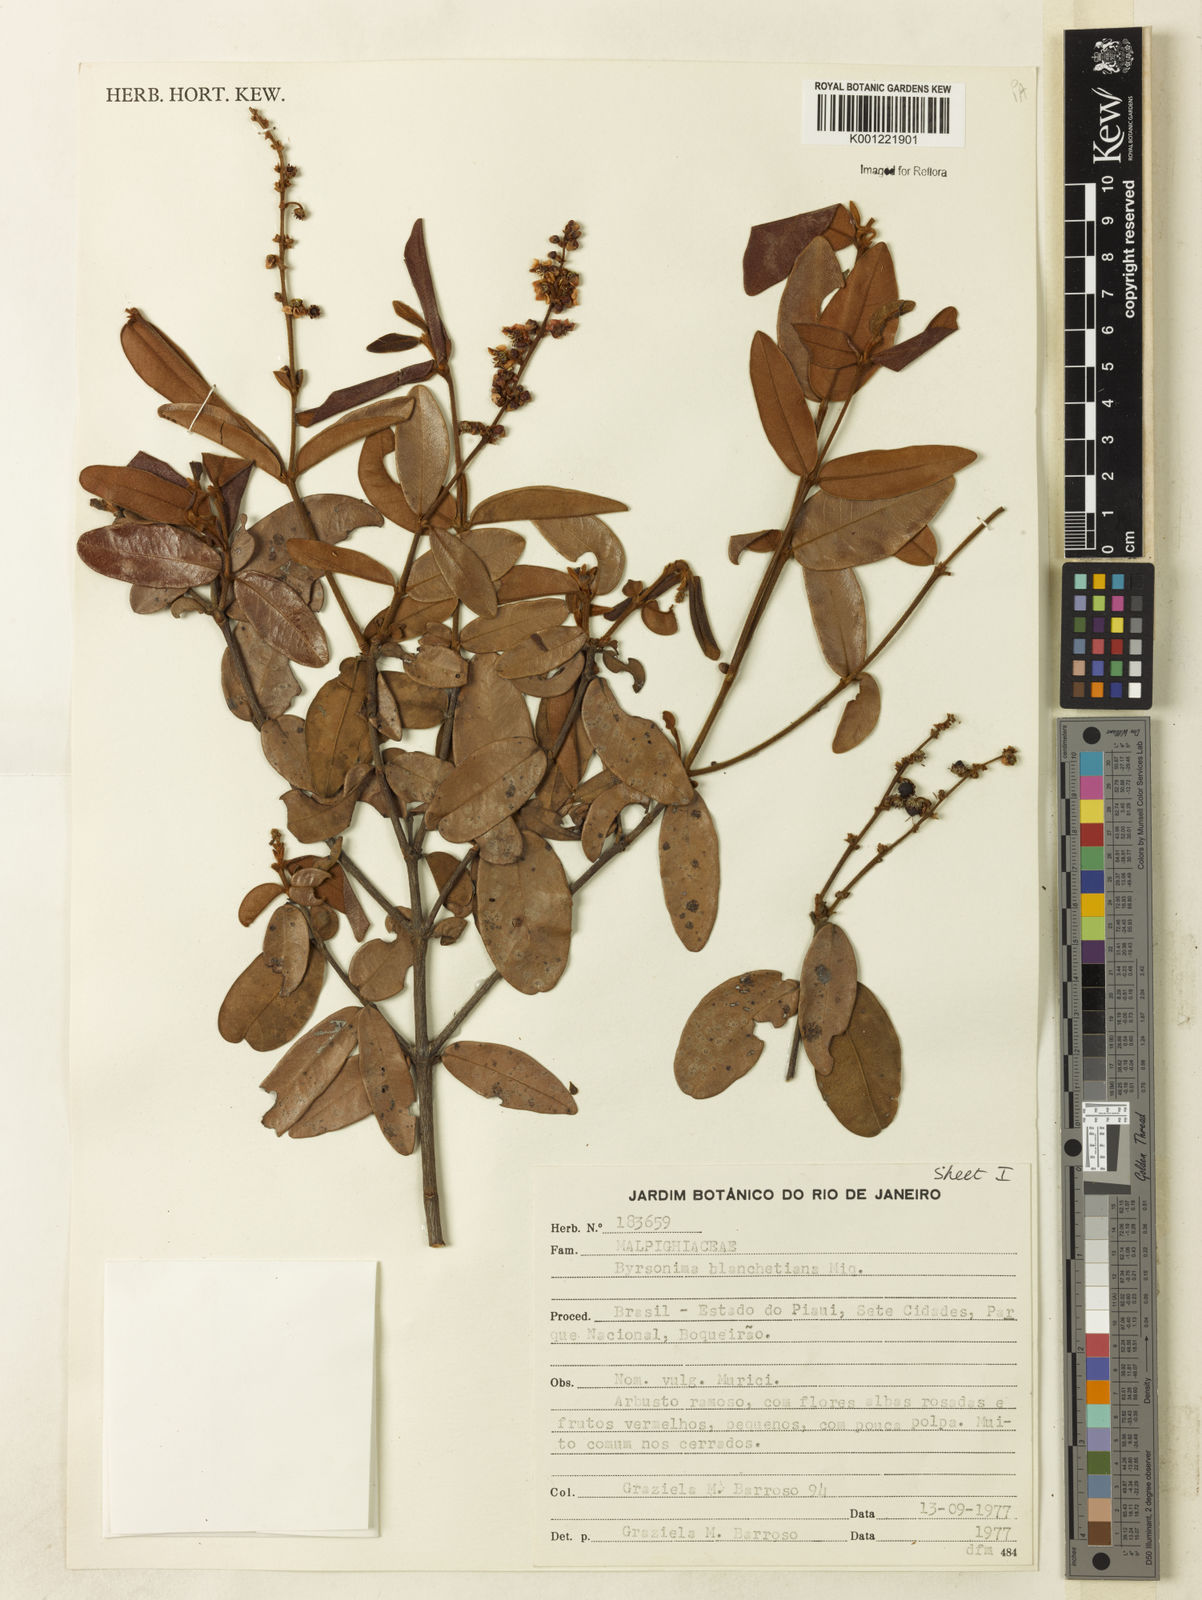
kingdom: Plantae
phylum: Tracheophyta
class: Magnoliopsida
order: Malpighiales
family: Malpighiaceae
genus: Byrsonima
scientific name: Byrsonima bicorniculata
